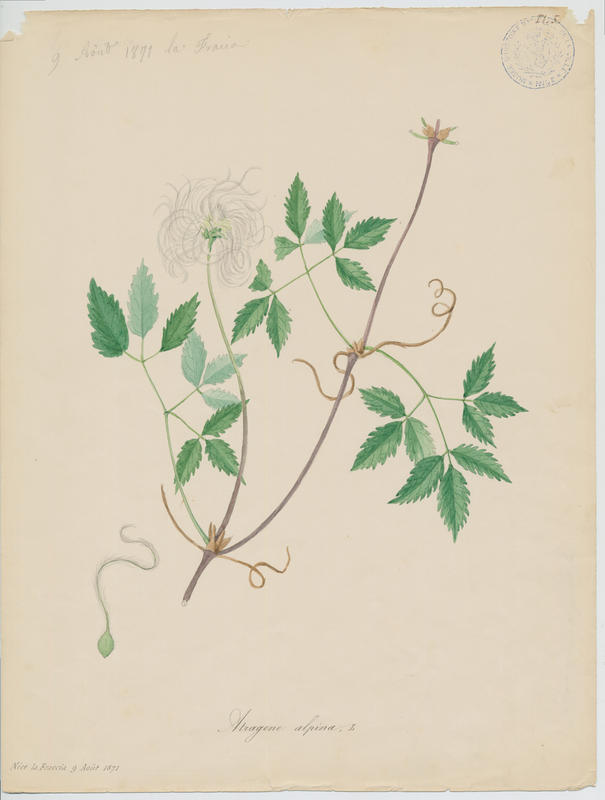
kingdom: Plantae
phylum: Tracheophyta
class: Magnoliopsida
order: Ranunculales
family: Ranunculaceae
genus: Clematis
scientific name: Clematis alpina
